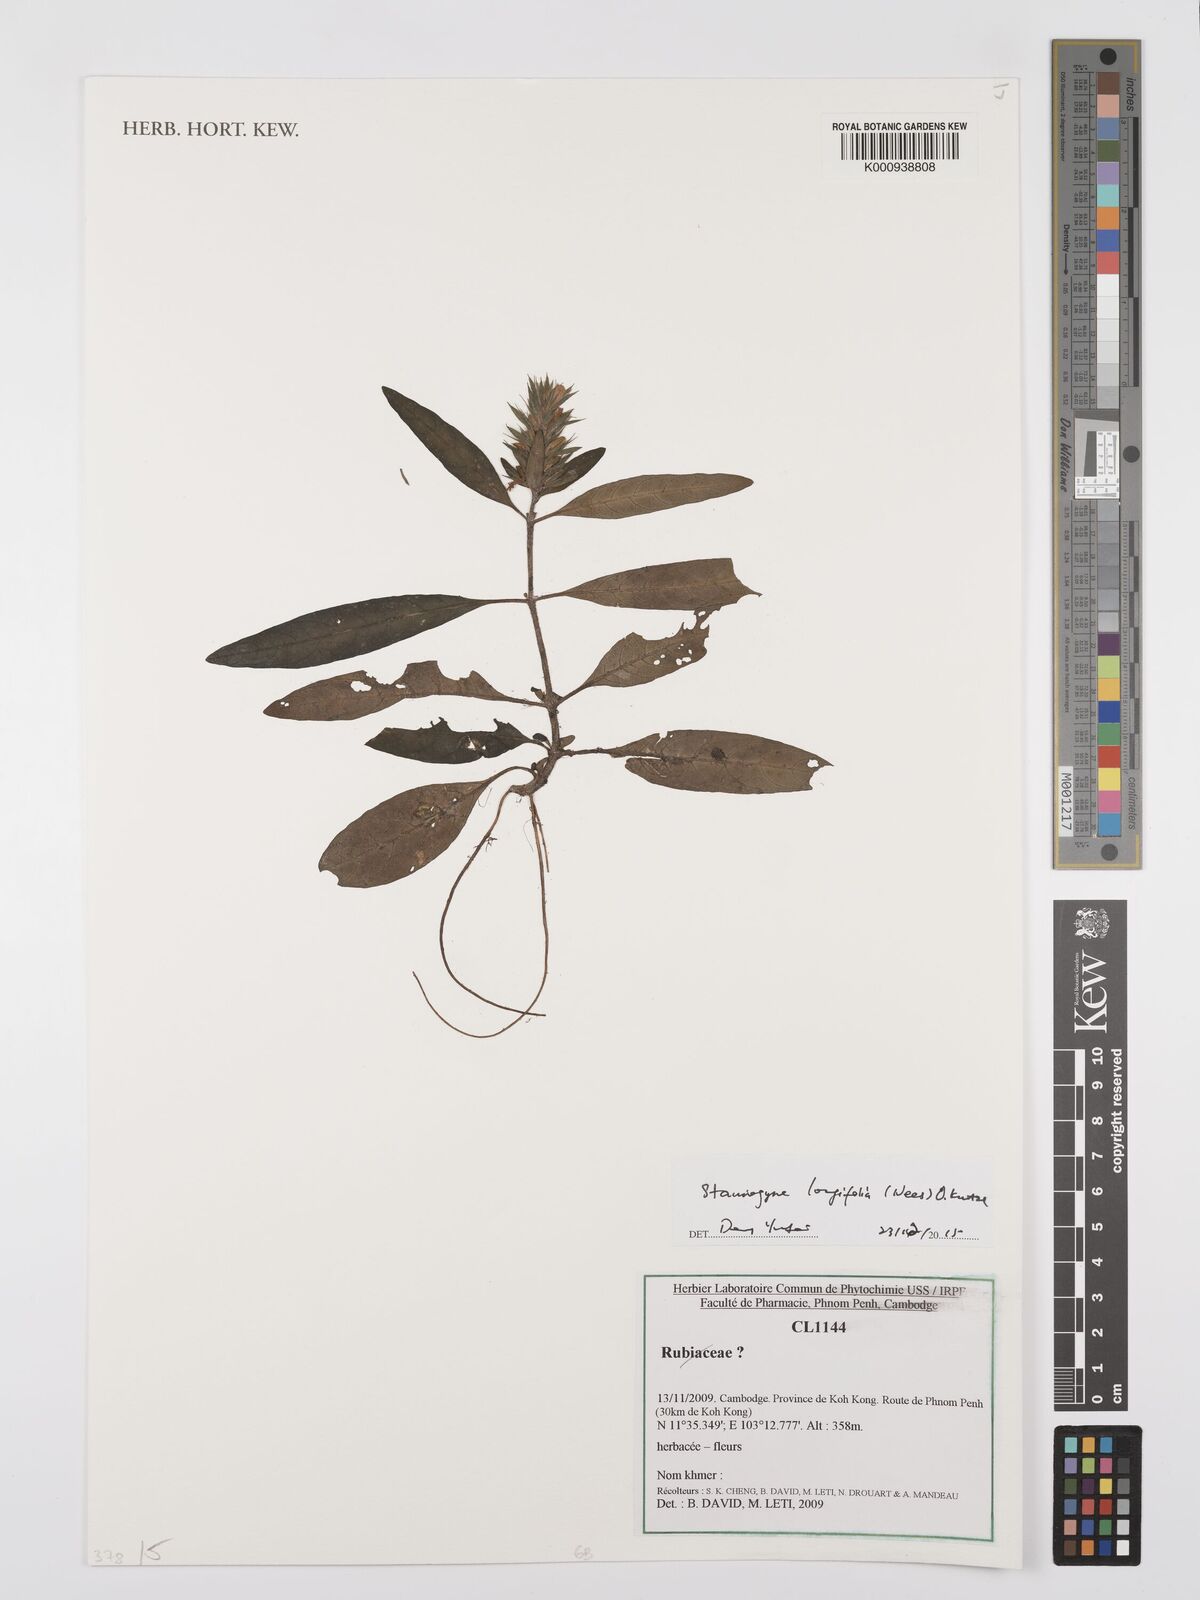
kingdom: Plantae
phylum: Tracheophyta
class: Magnoliopsida
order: Lamiales
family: Acanthaceae
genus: Staurogyne
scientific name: Staurogyne longifolia
